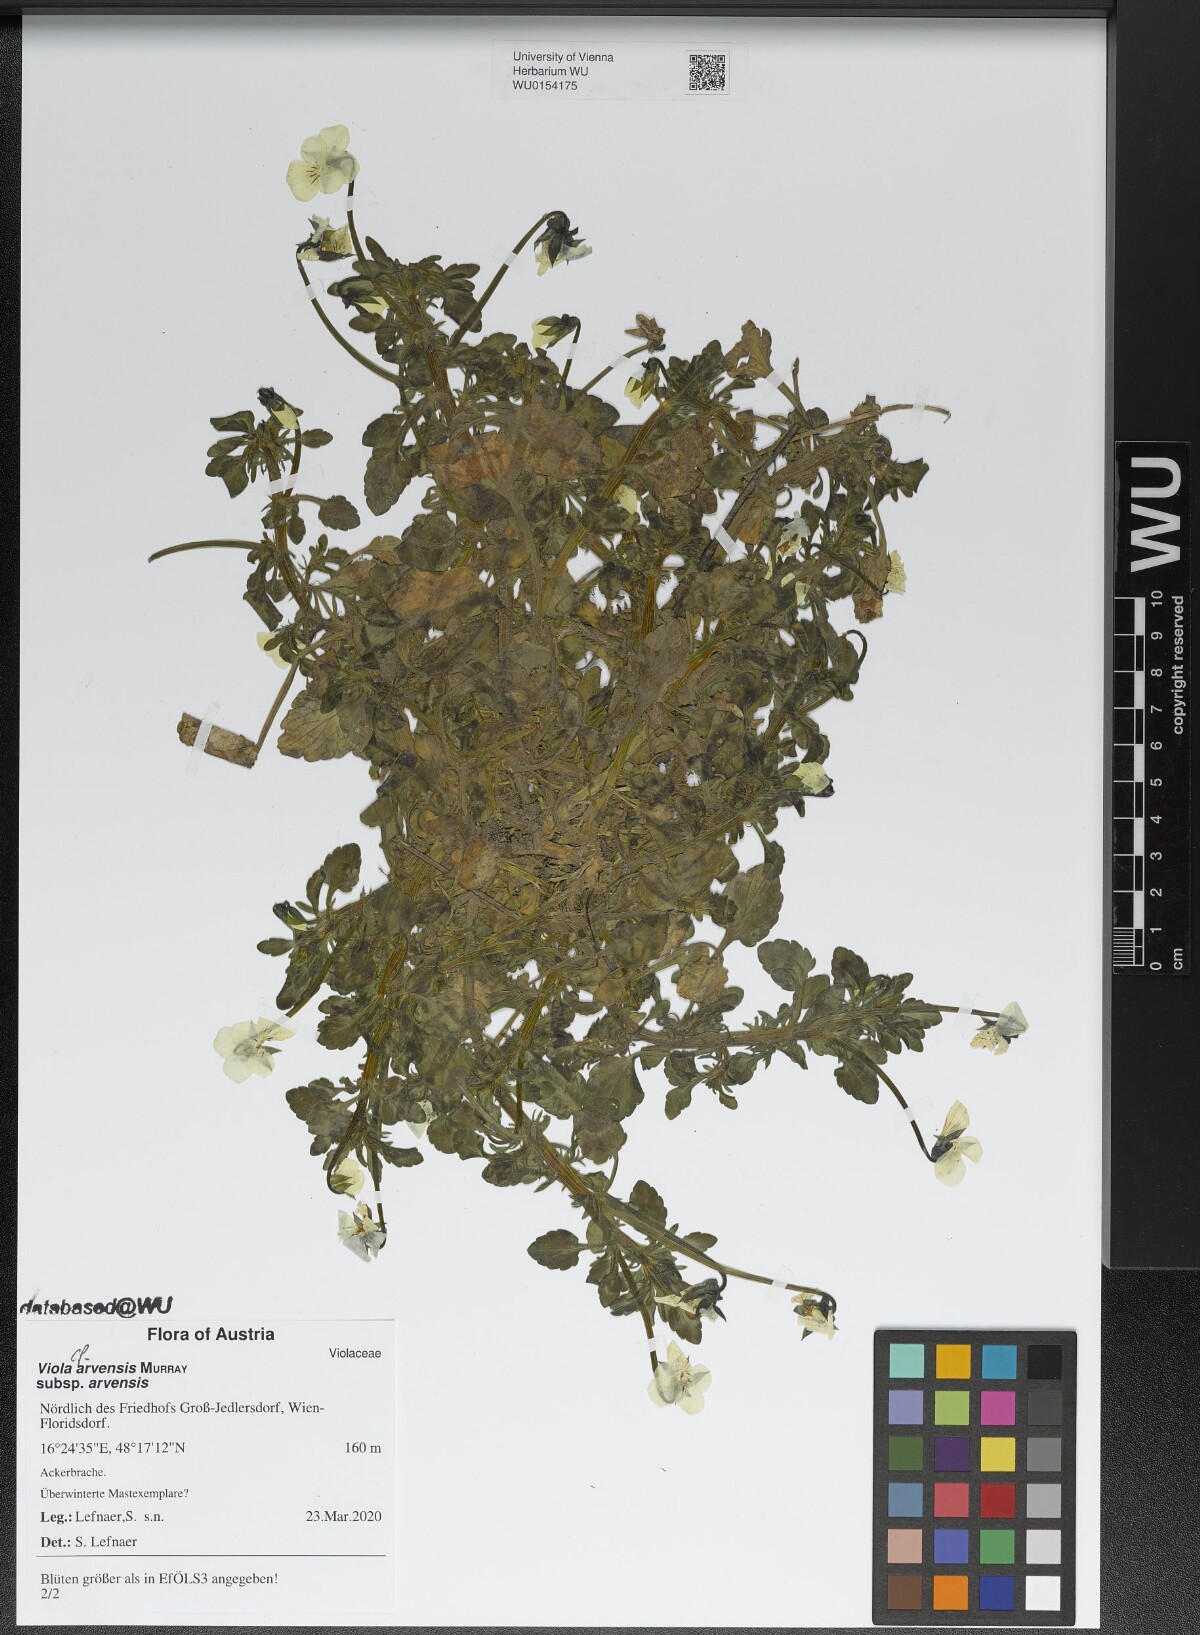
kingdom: Plantae
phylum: Tracheophyta
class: Magnoliopsida
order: Malpighiales
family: Violaceae
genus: Viola
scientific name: Viola arvensis
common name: Field pansy
